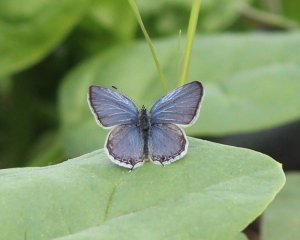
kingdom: Animalia
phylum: Arthropoda
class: Insecta
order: Lepidoptera
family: Lycaenidae
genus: Elkalyce
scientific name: Elkalyce amyntula
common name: Western Tailed-Blue
